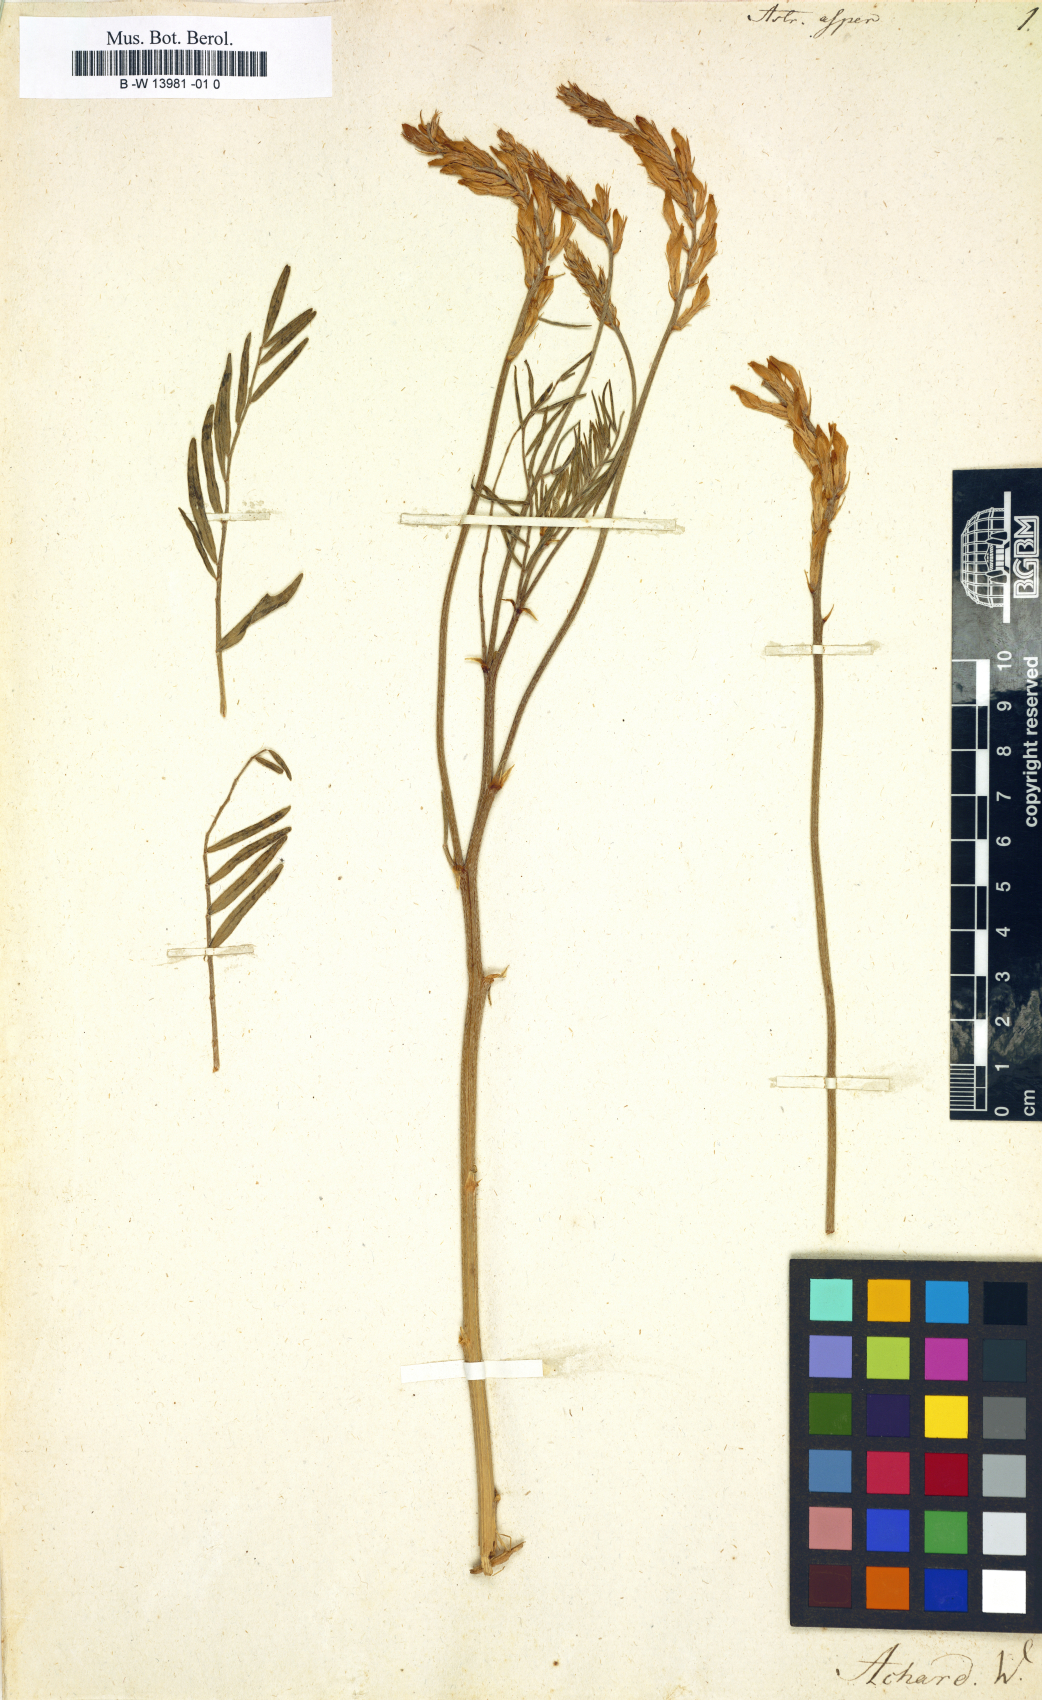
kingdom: Plantae
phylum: Tracheophyta
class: Magnoliopsida
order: Fabales
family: Fabaceae
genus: Astragalus
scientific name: Astragalus asper
